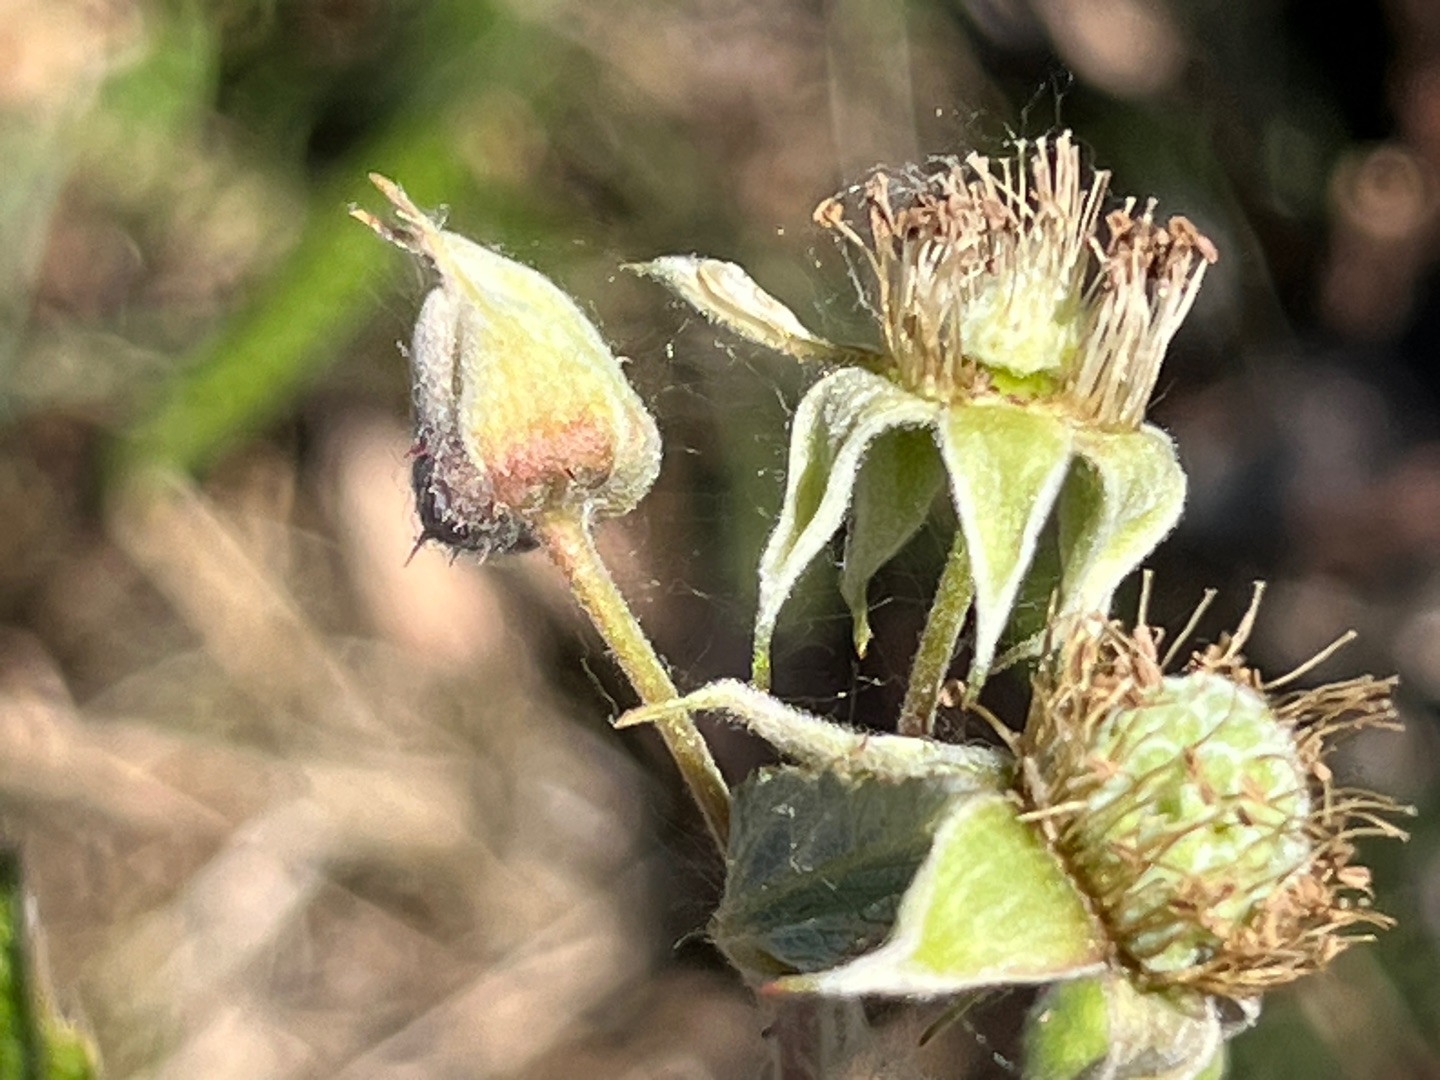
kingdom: Animalia
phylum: Arthropoda
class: Insecta
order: Diptera
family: Cecidomyiidae
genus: Contarinia
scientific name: Contarinia rubicola
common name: Korbærblomstgalmyg
